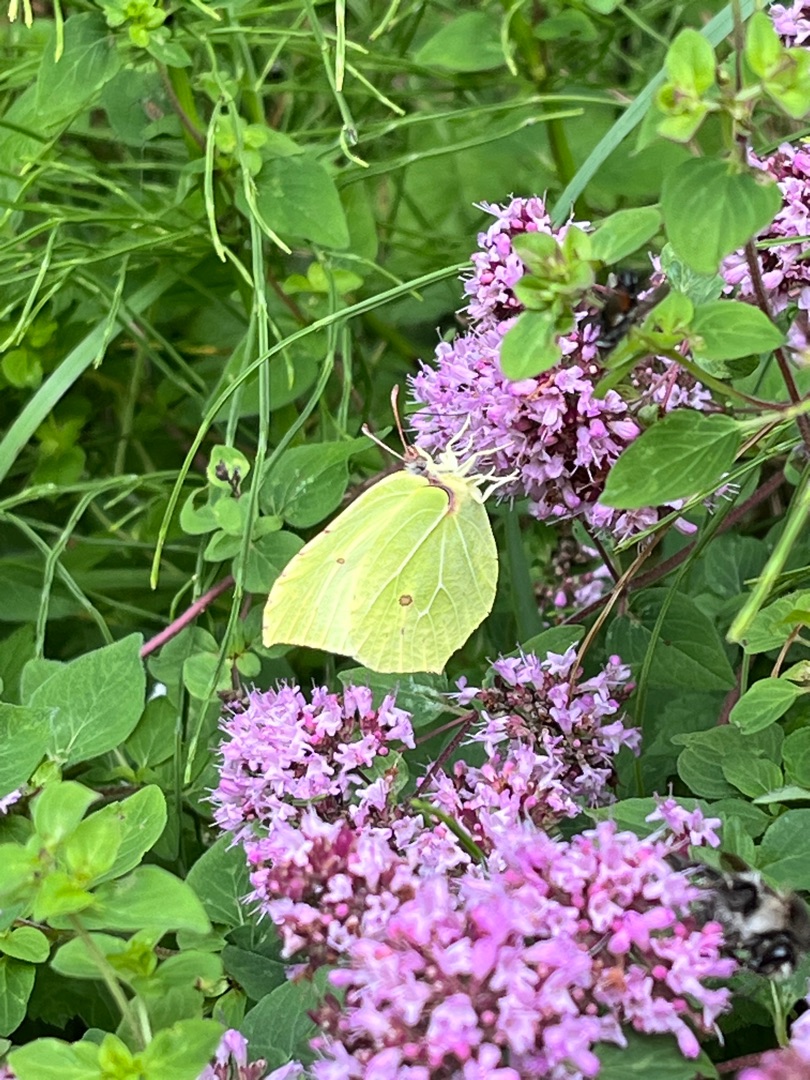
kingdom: Animalia
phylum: Arthropoda
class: Insecta
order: Lepidoptera
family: Pieridae
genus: Gonepteryx
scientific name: Gonepteryx rhamni
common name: Citronsommerfugl
